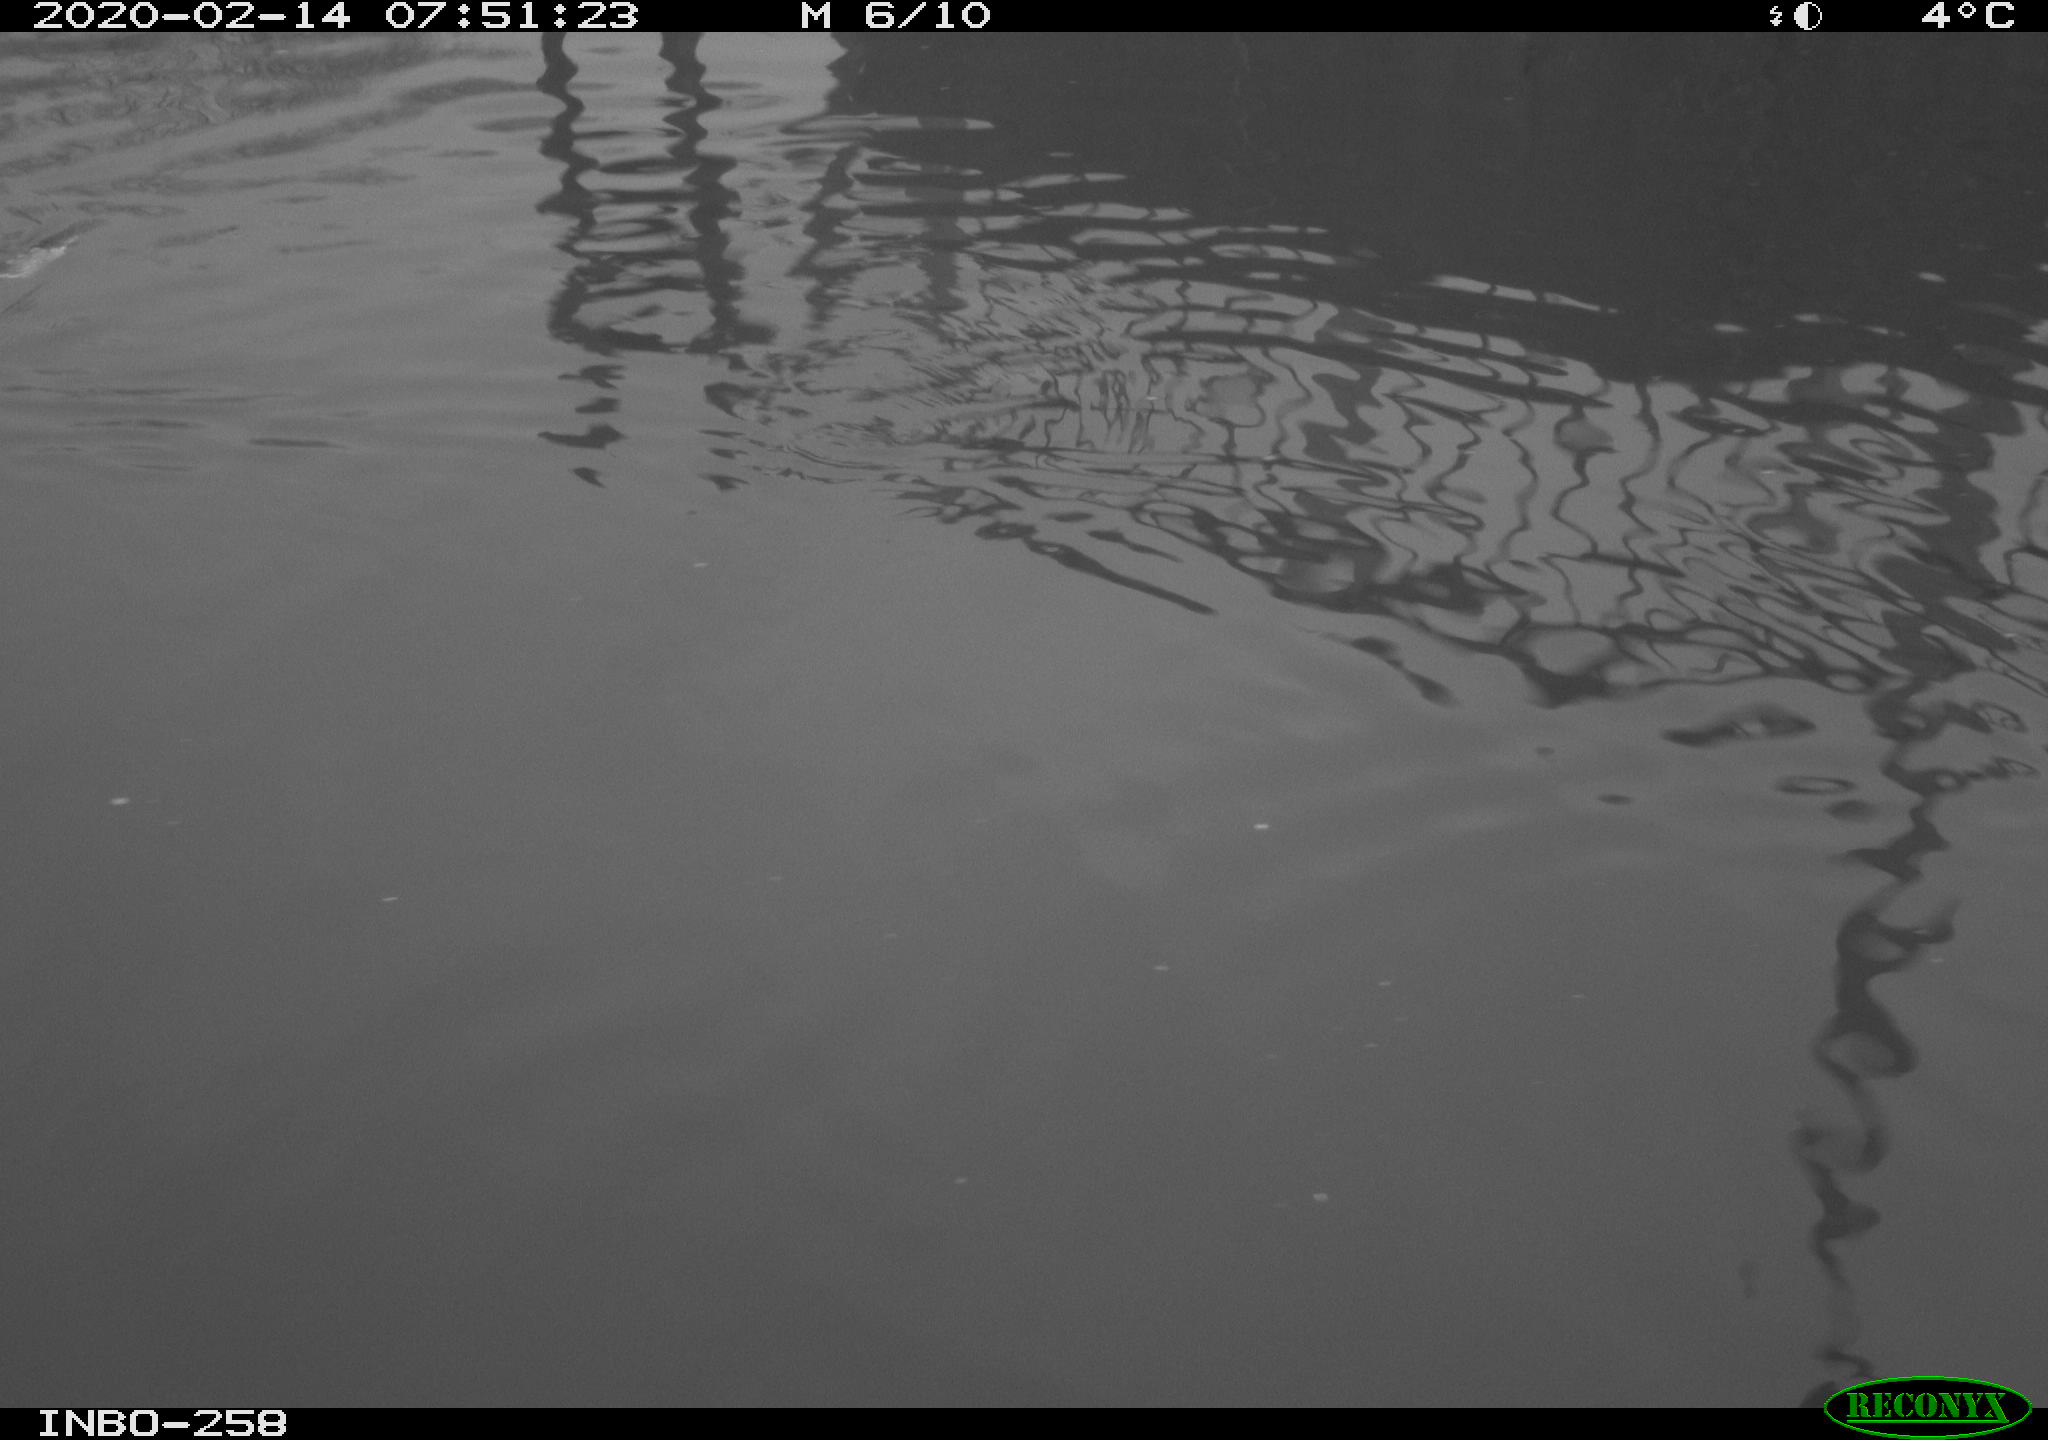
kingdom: Animalia
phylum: Chordata
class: Aves
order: Gruiformes
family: Rallidae
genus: Gallinula
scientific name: Gallinula chloropus
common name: Common moorhen
